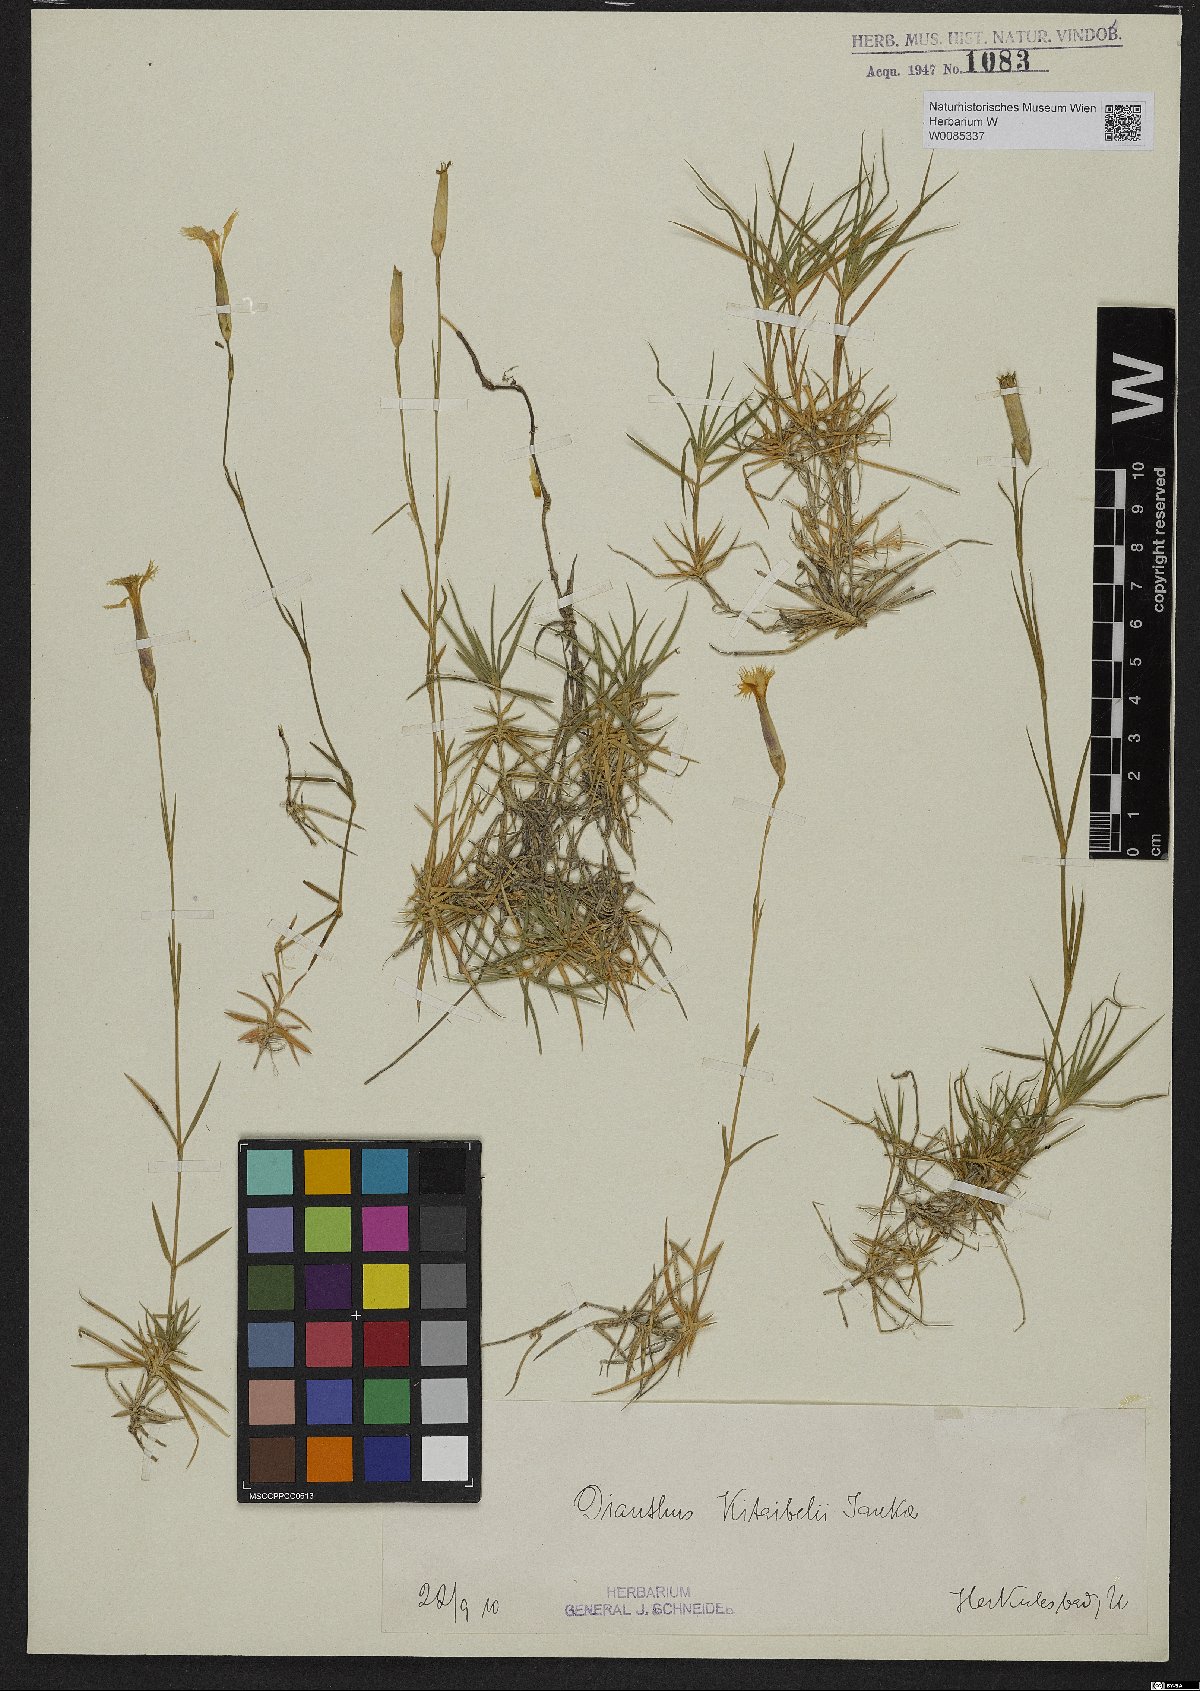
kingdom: Plantae
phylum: Tracheophyta
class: Magnoliopsida
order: Caryophyllales
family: Caryophyllaceae
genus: Dianthus
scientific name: Dianthus petraeus
